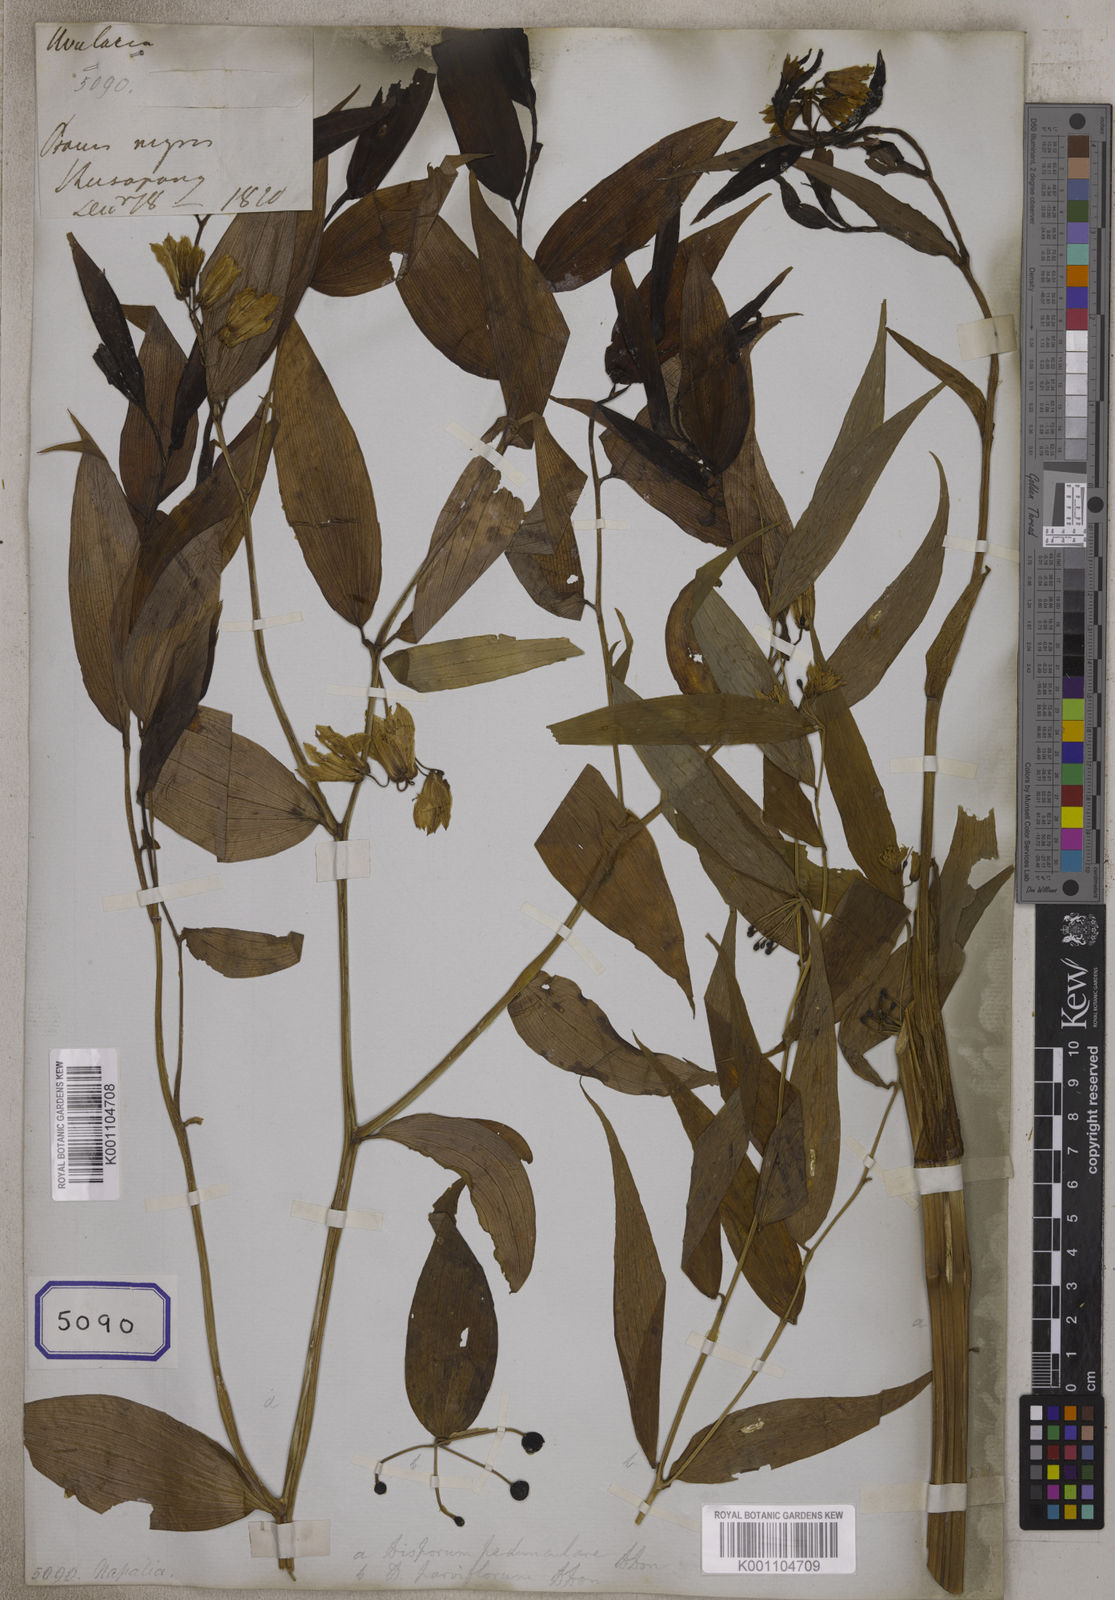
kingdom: Plantae
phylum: Tracheophyta
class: Liliopsida
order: Liliales
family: Colchicaceae
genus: Disporum
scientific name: Disporum cantoniense
